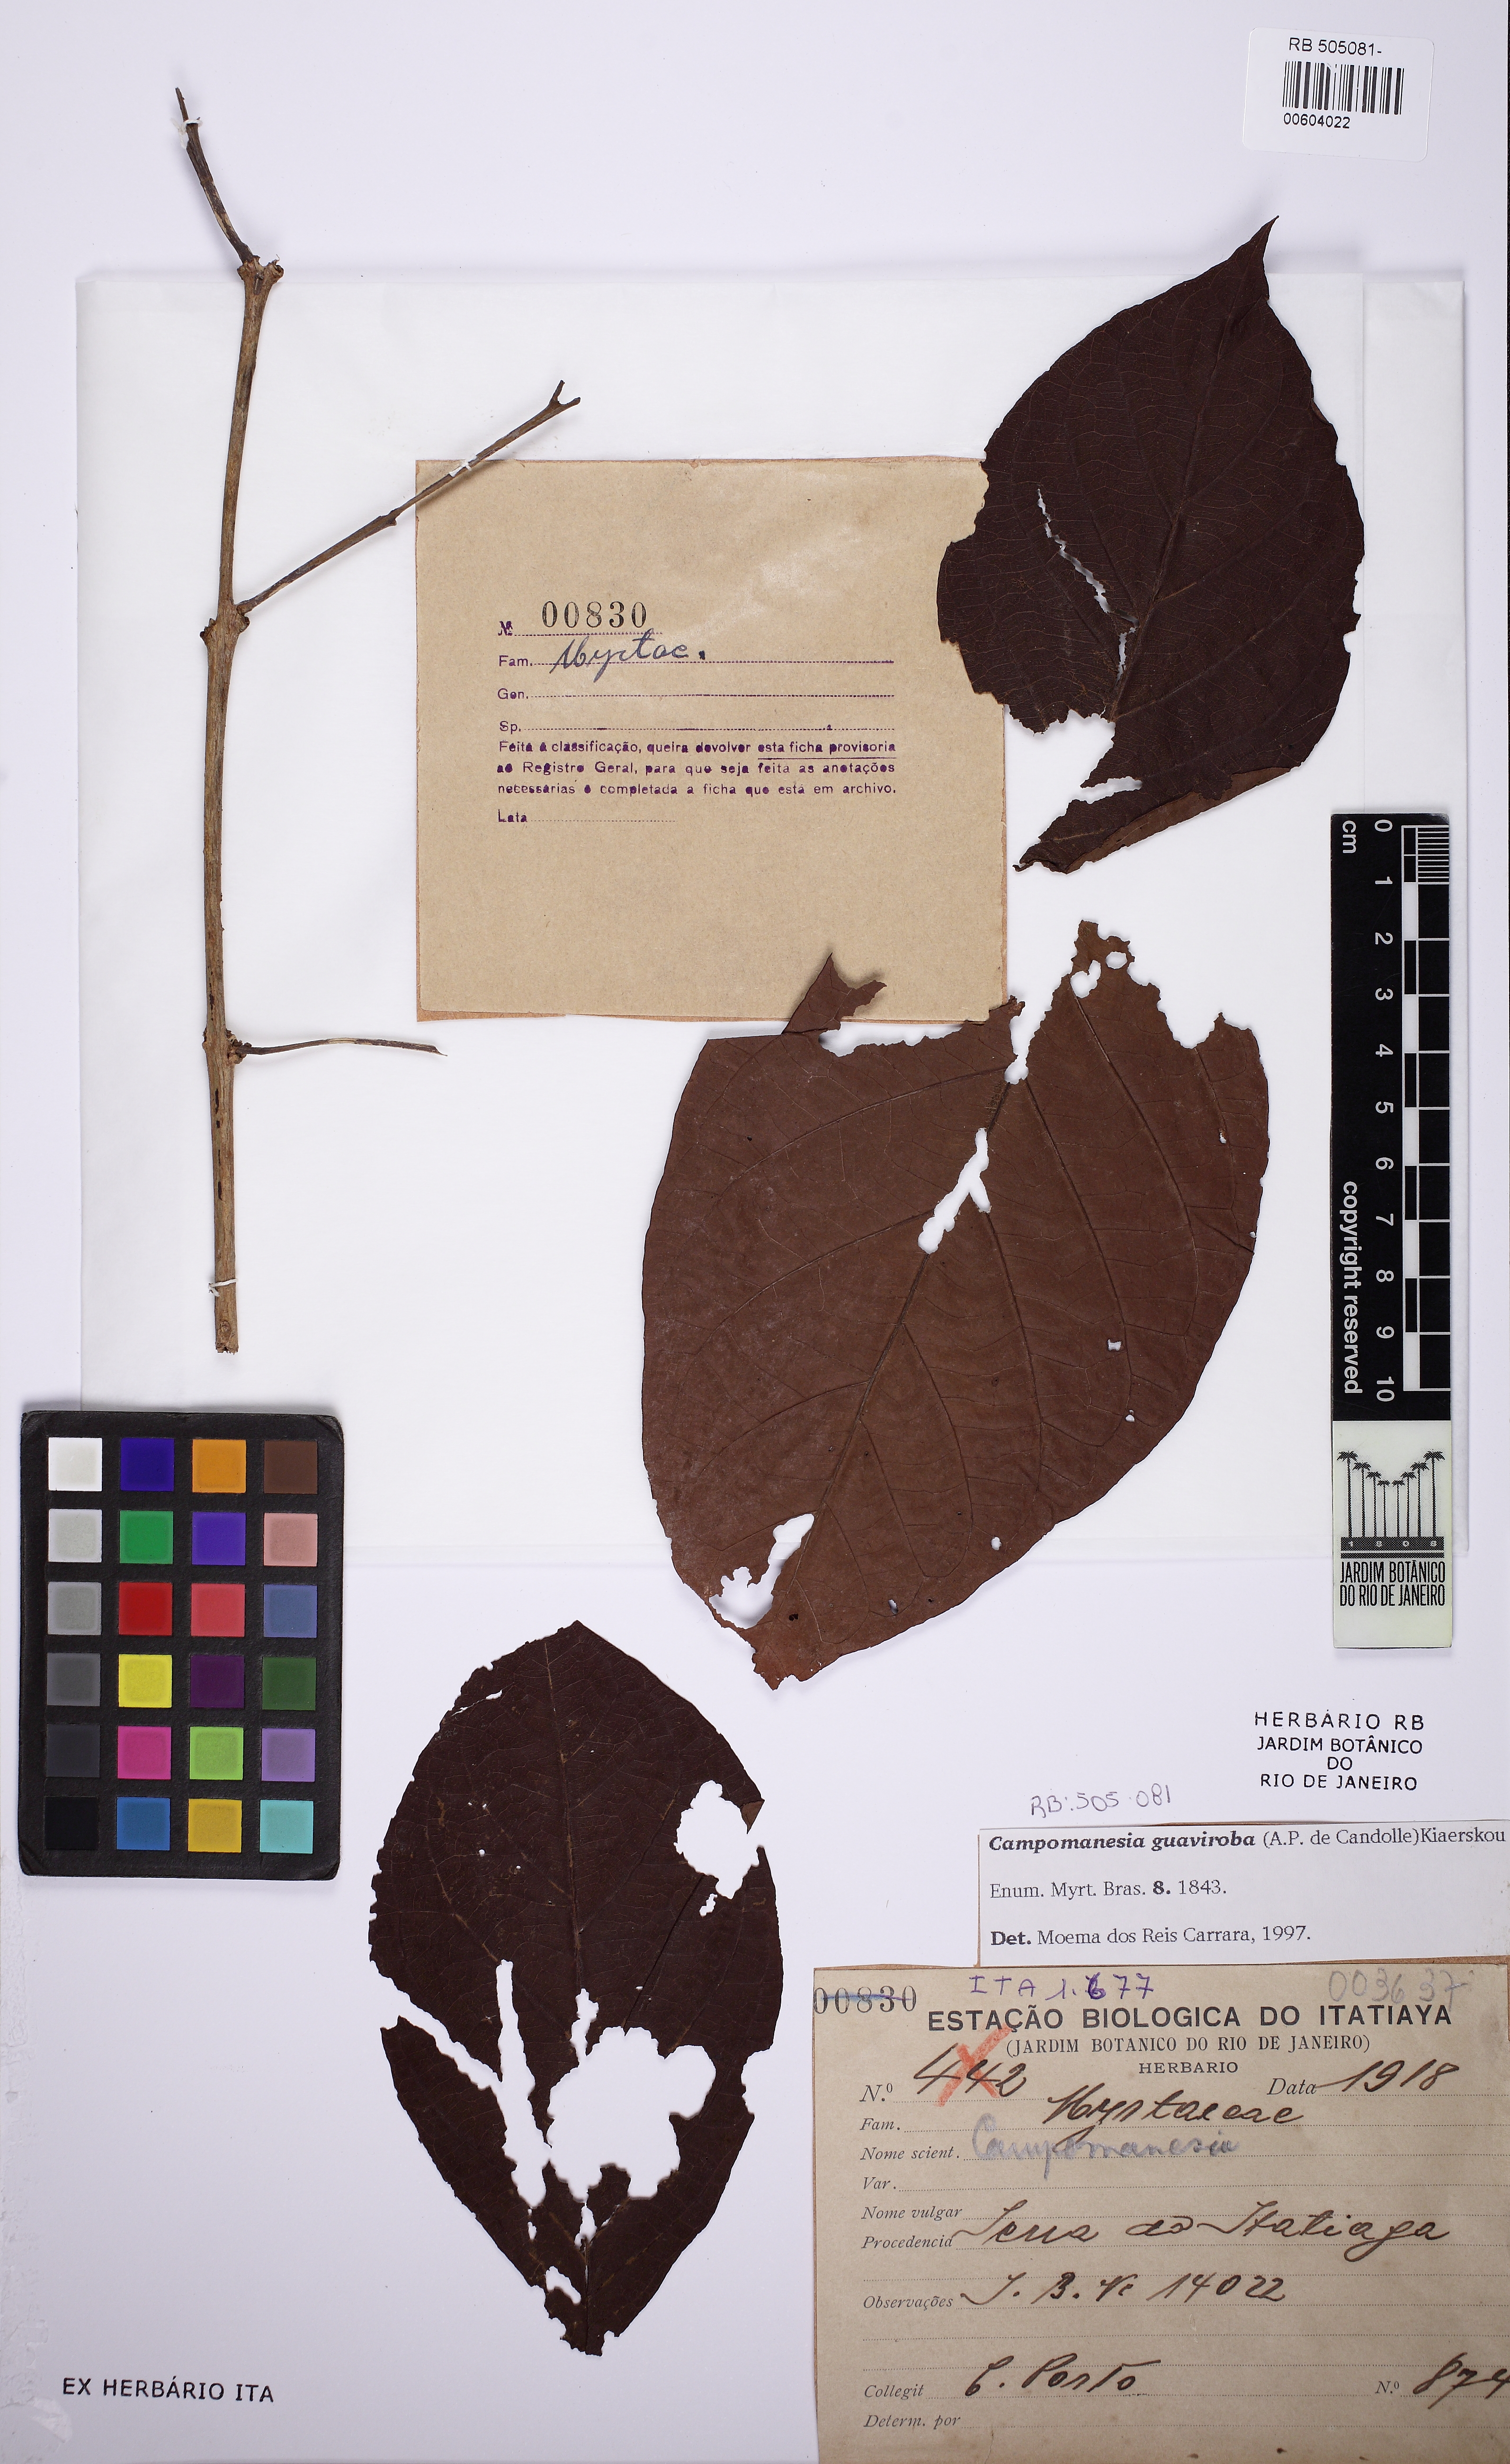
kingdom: Plantae
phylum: Tracheophyta
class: Magnoliopsida
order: Myrtales
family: Myrtaceae
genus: Campomanesia
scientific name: Campomanesia guaviroba
